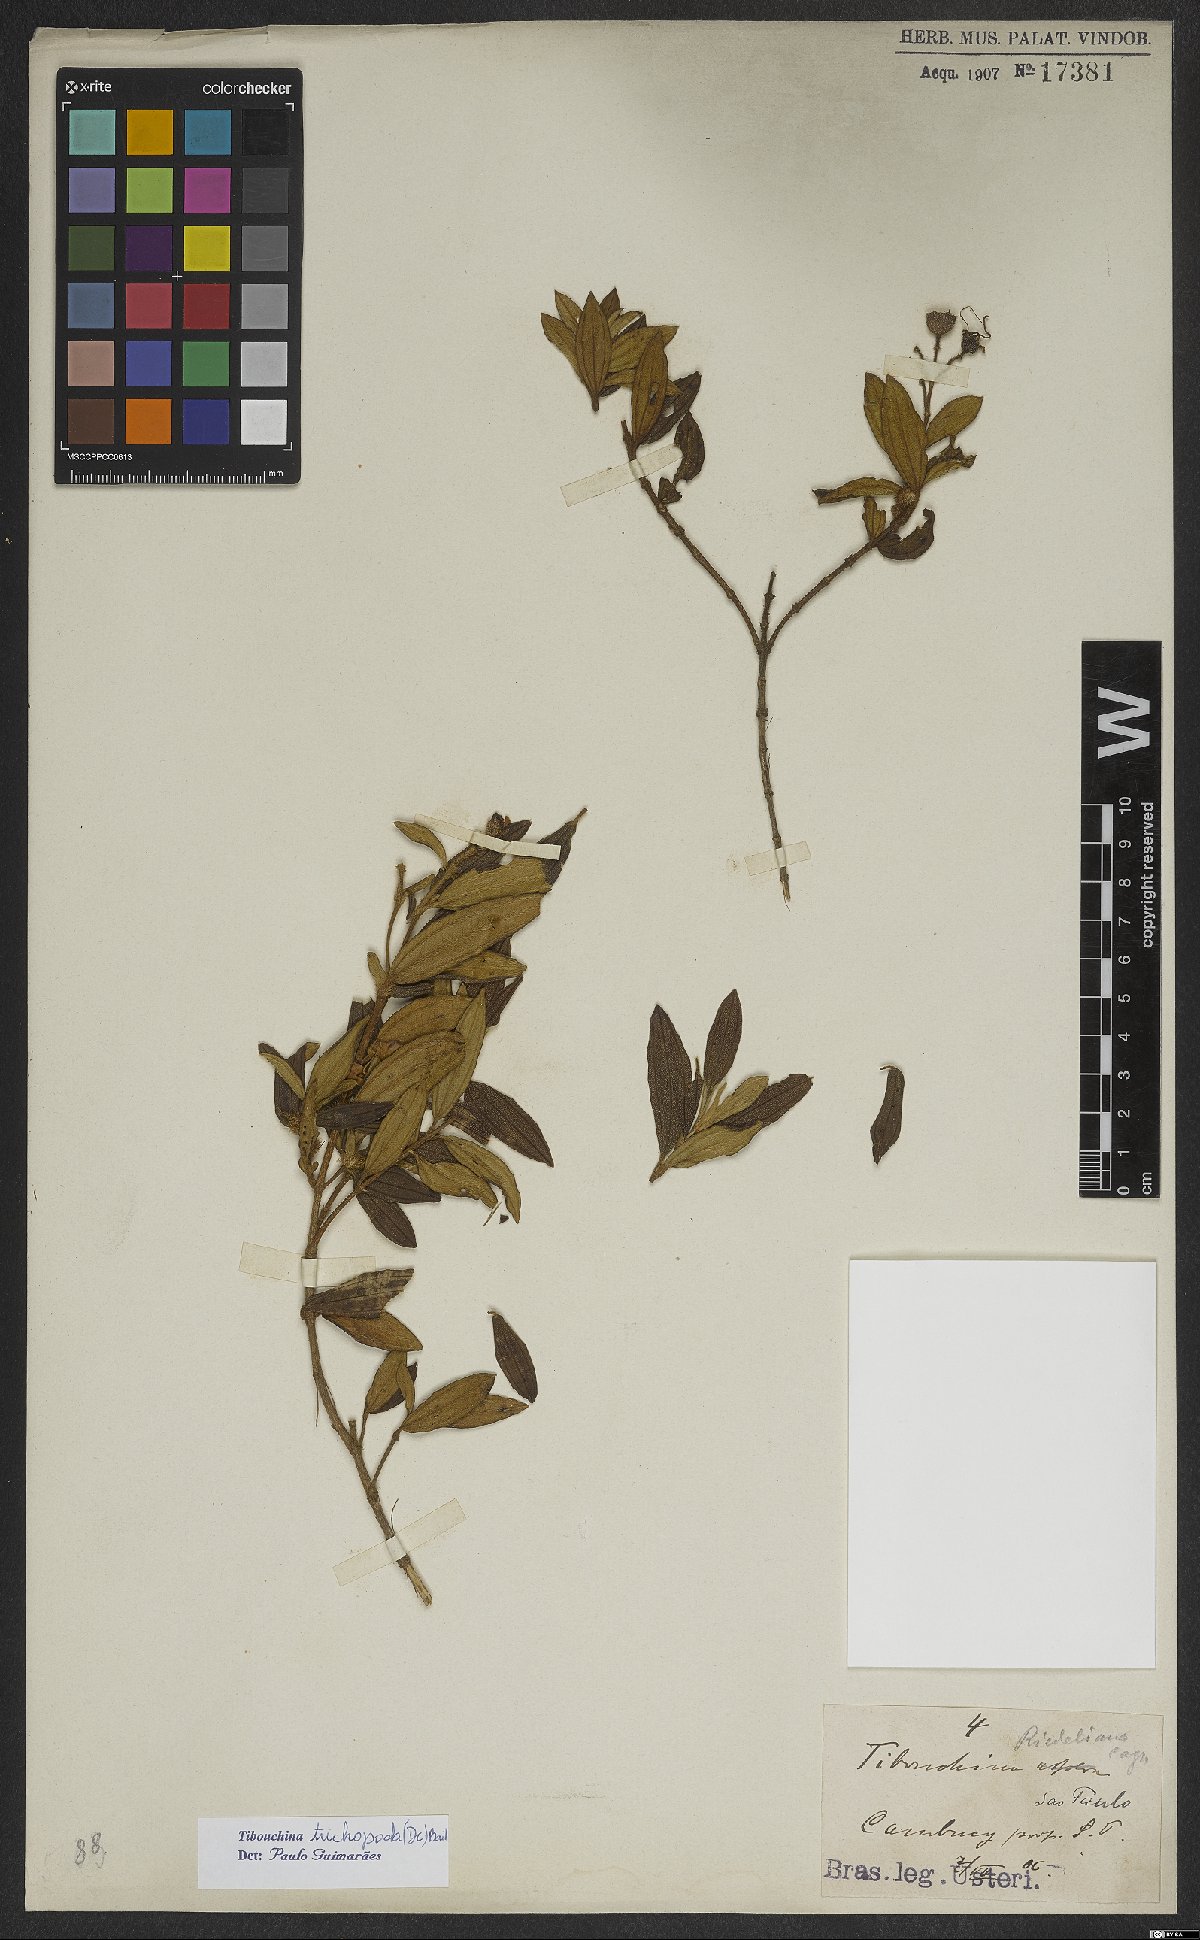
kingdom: Plantae
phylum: Tracheophyta
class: Magnoliopsida
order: Myrtales
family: Melastomataceae
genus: Pleroma
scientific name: Pleroma riedelianum
